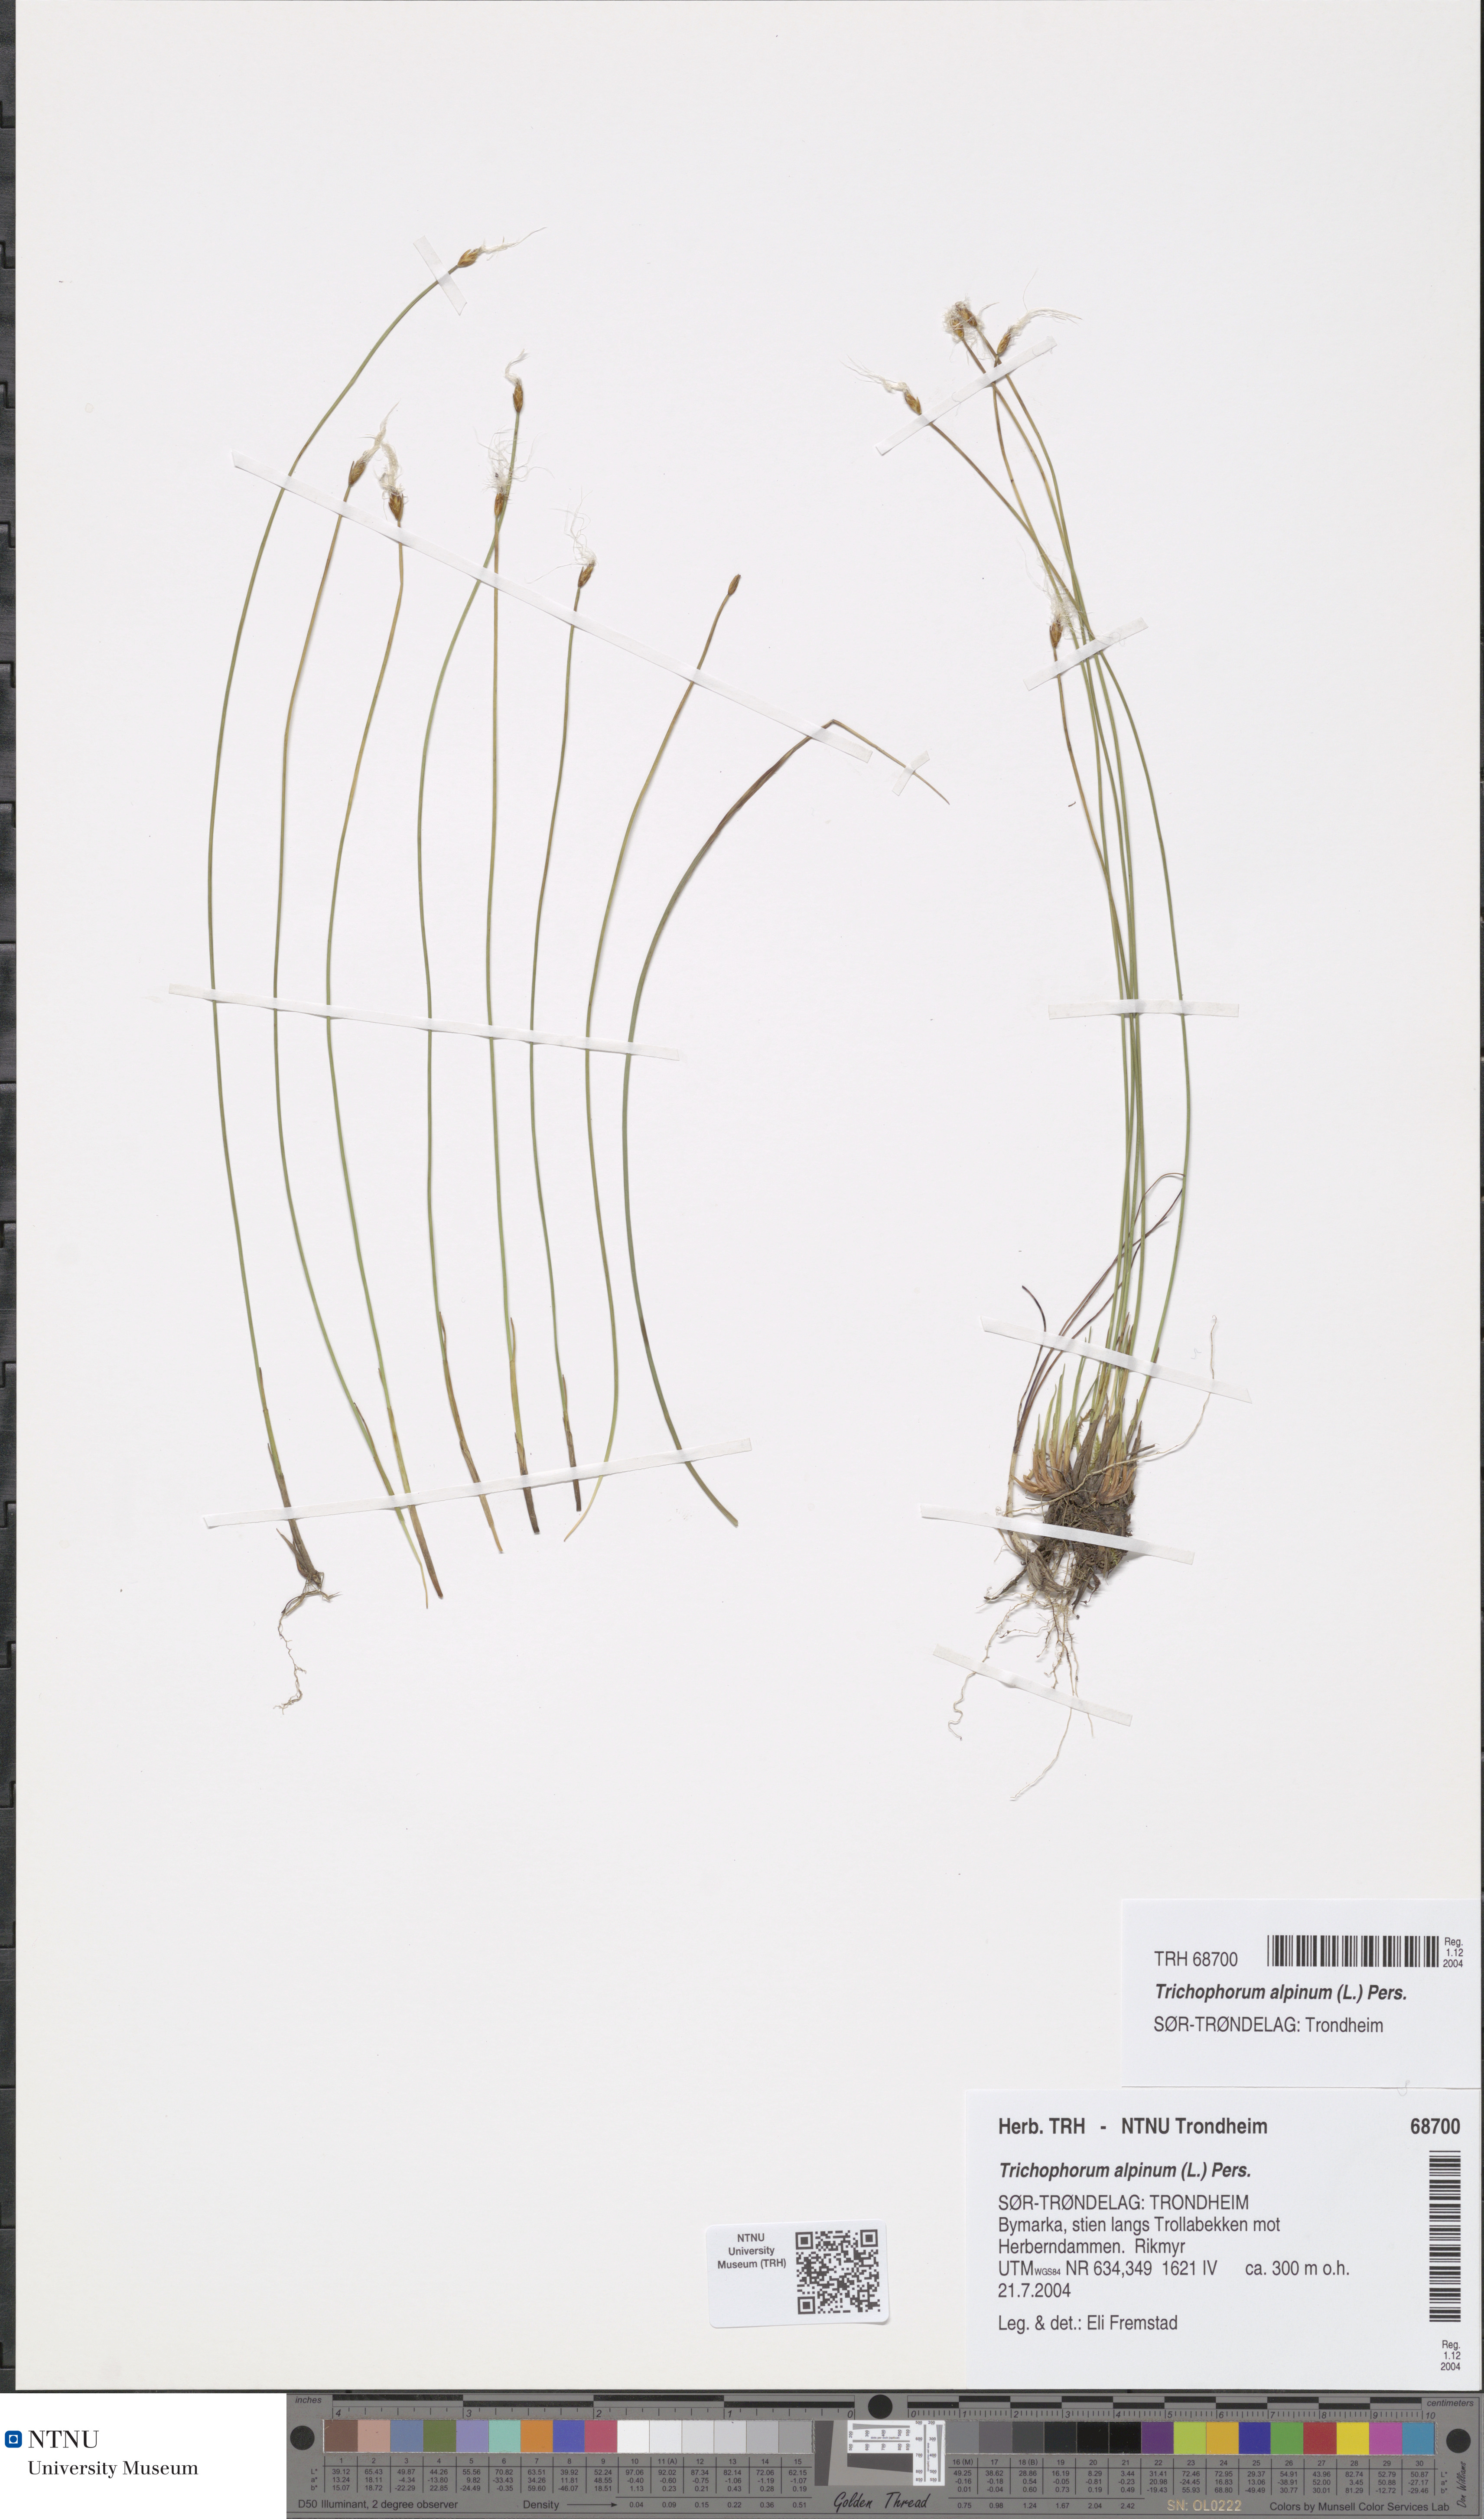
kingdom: Plantae
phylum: Tracheophyta
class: Liliopsida
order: Poales
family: Cyperaceae
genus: Trichophorum
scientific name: Trichophorum alpinum
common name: Alpine bulrush
